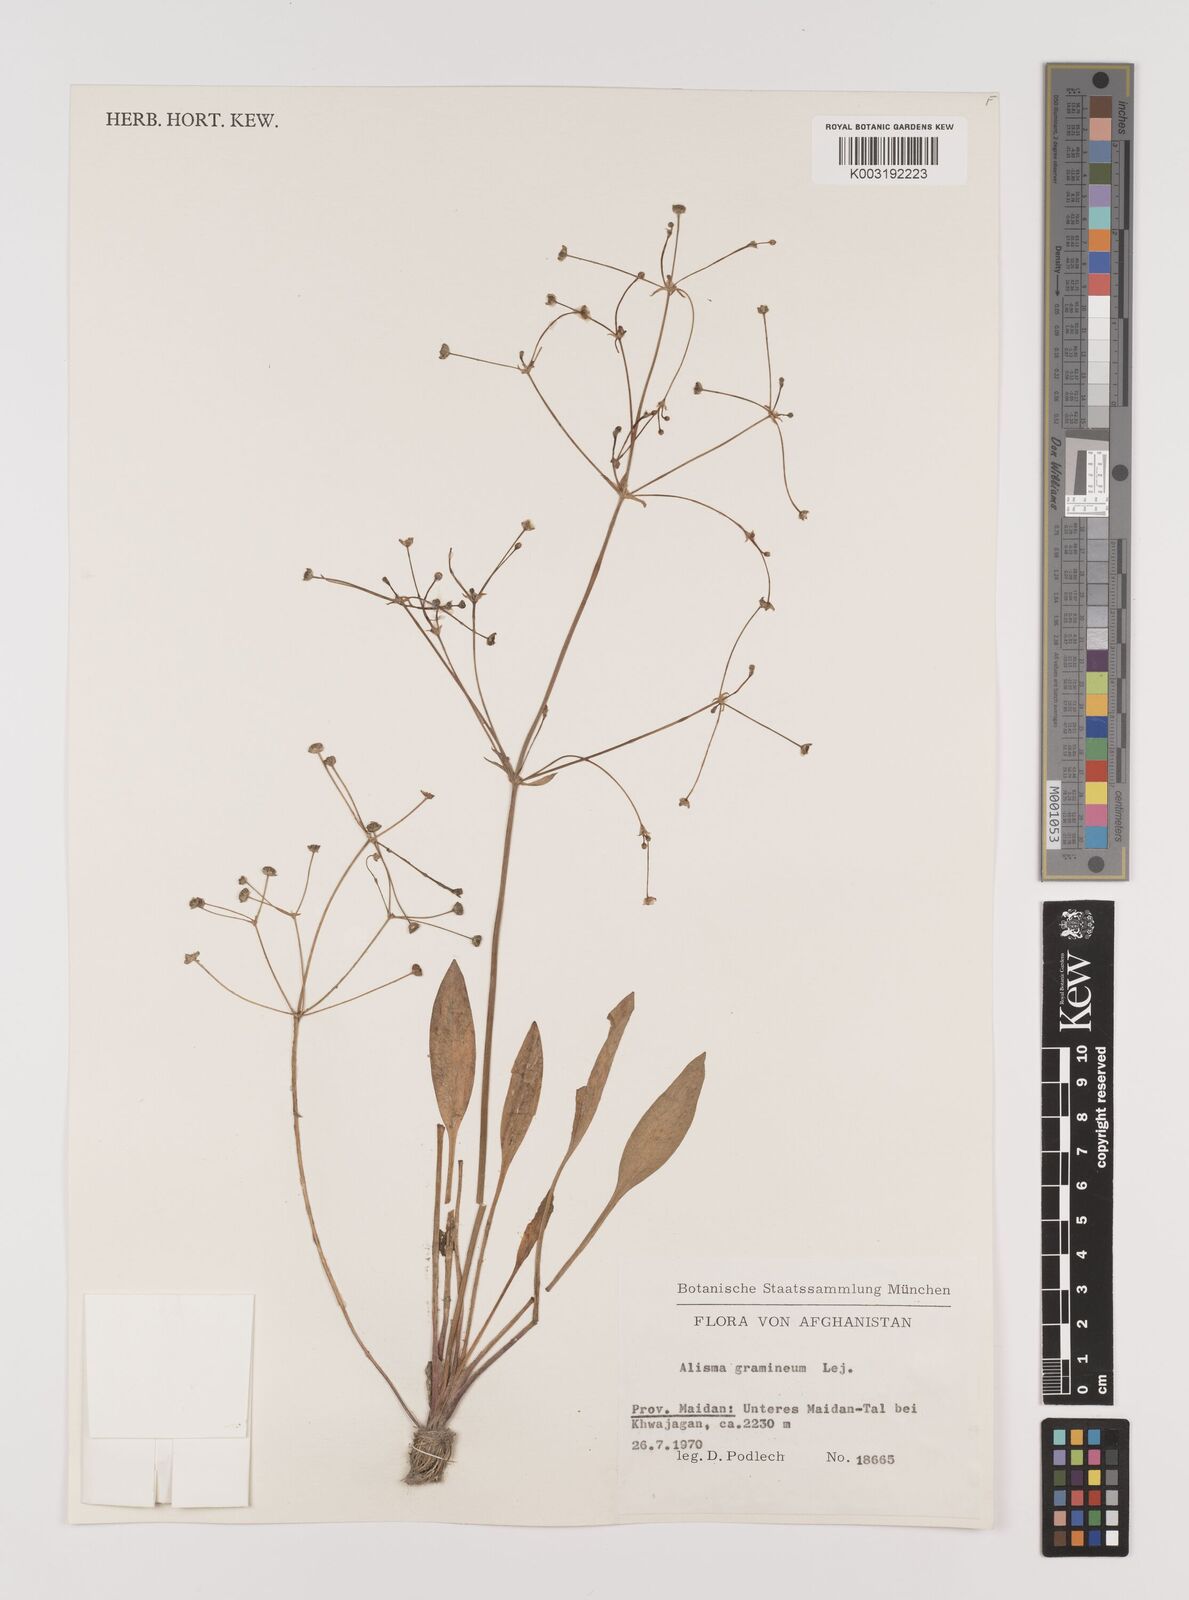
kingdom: Plantae
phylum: Tracheophyta
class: Liliopsida
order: Alismatales
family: Alismataceae
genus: Alisma
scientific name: Alisma gramineum
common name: Ribbon-leaved water-plantain
